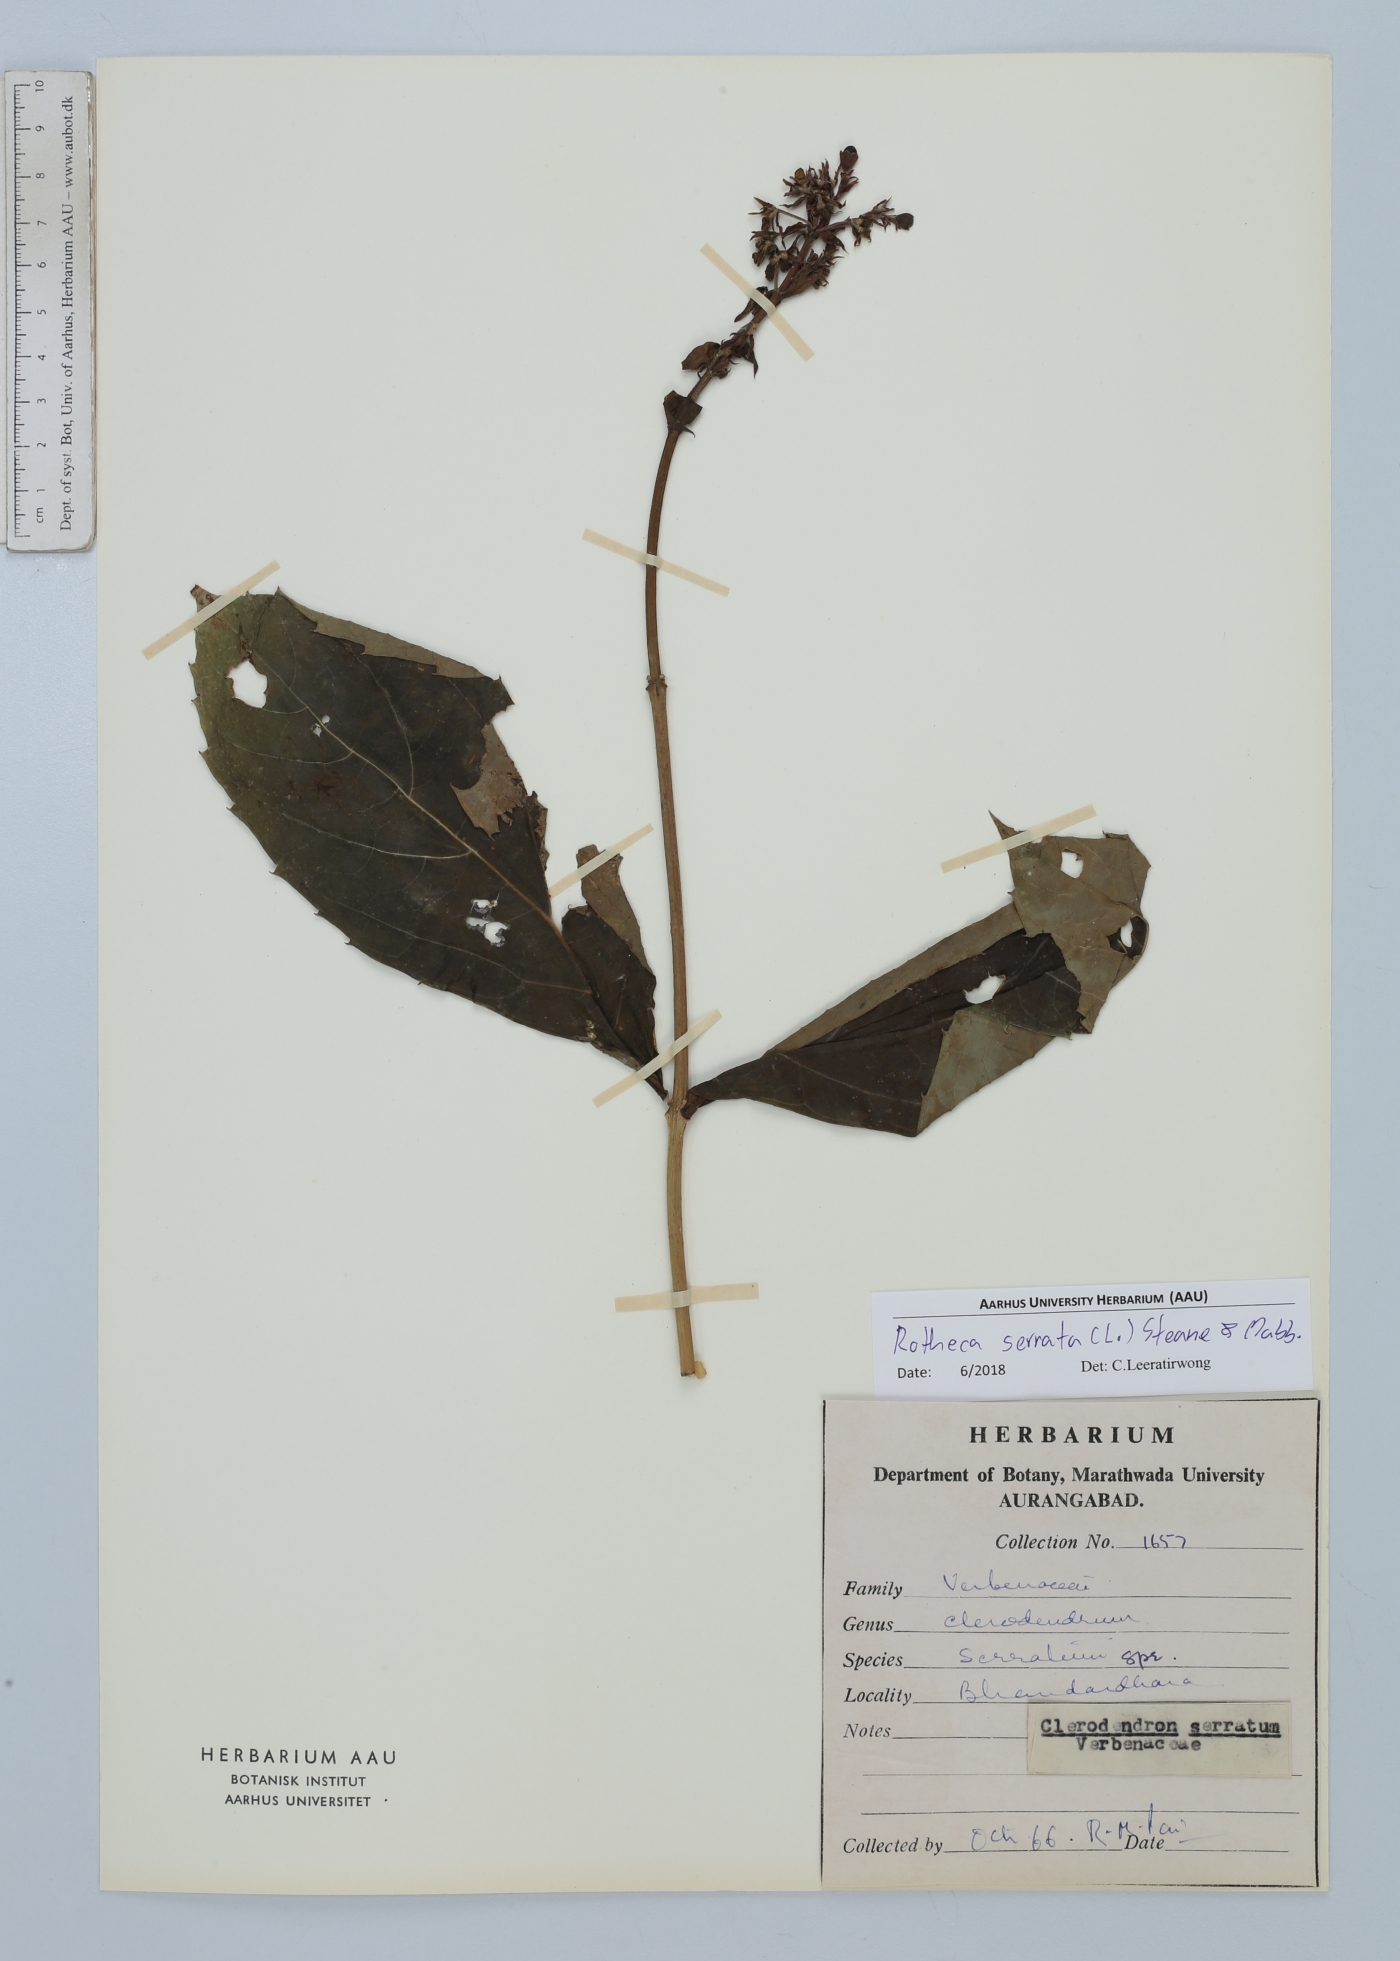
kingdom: Plantae
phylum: Tracheophyta
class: Magnoliopsida
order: Lamiales
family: Lamiaceae
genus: Rotheca
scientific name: Rotheca serrata
